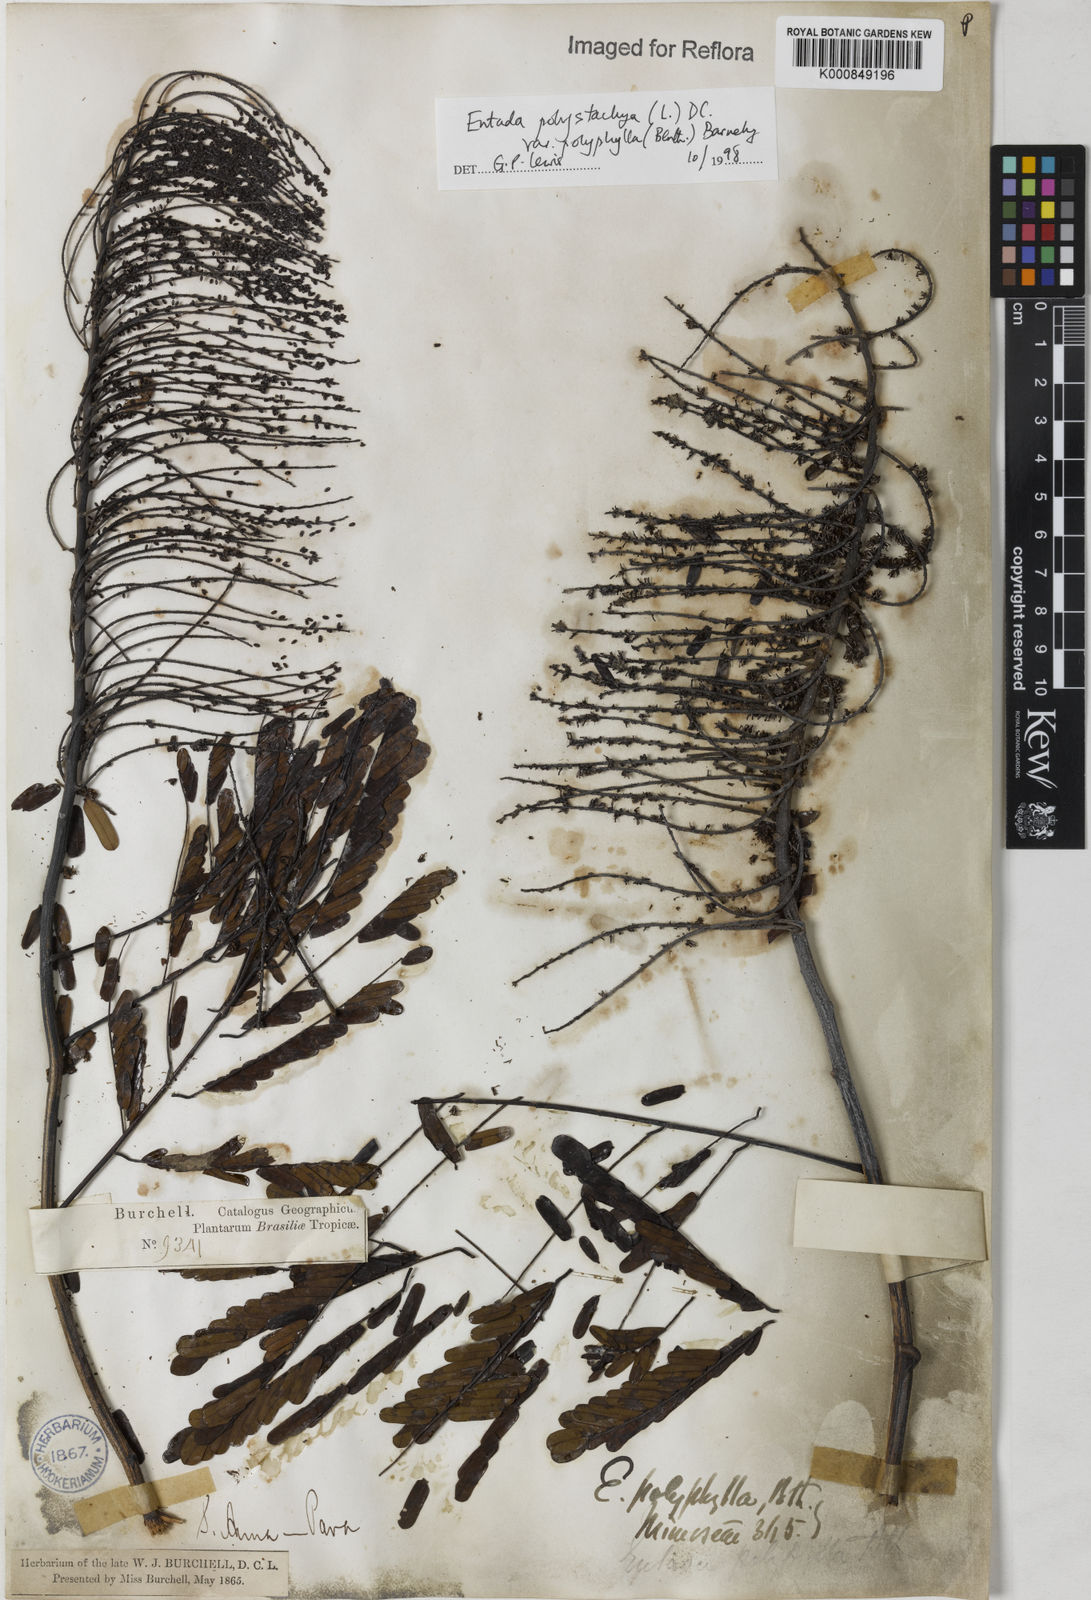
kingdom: Plantae
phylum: Tracheophyta
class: Magnoliopsida
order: Fabales
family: Fabaceae
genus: Entada
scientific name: Entada polyphylla
